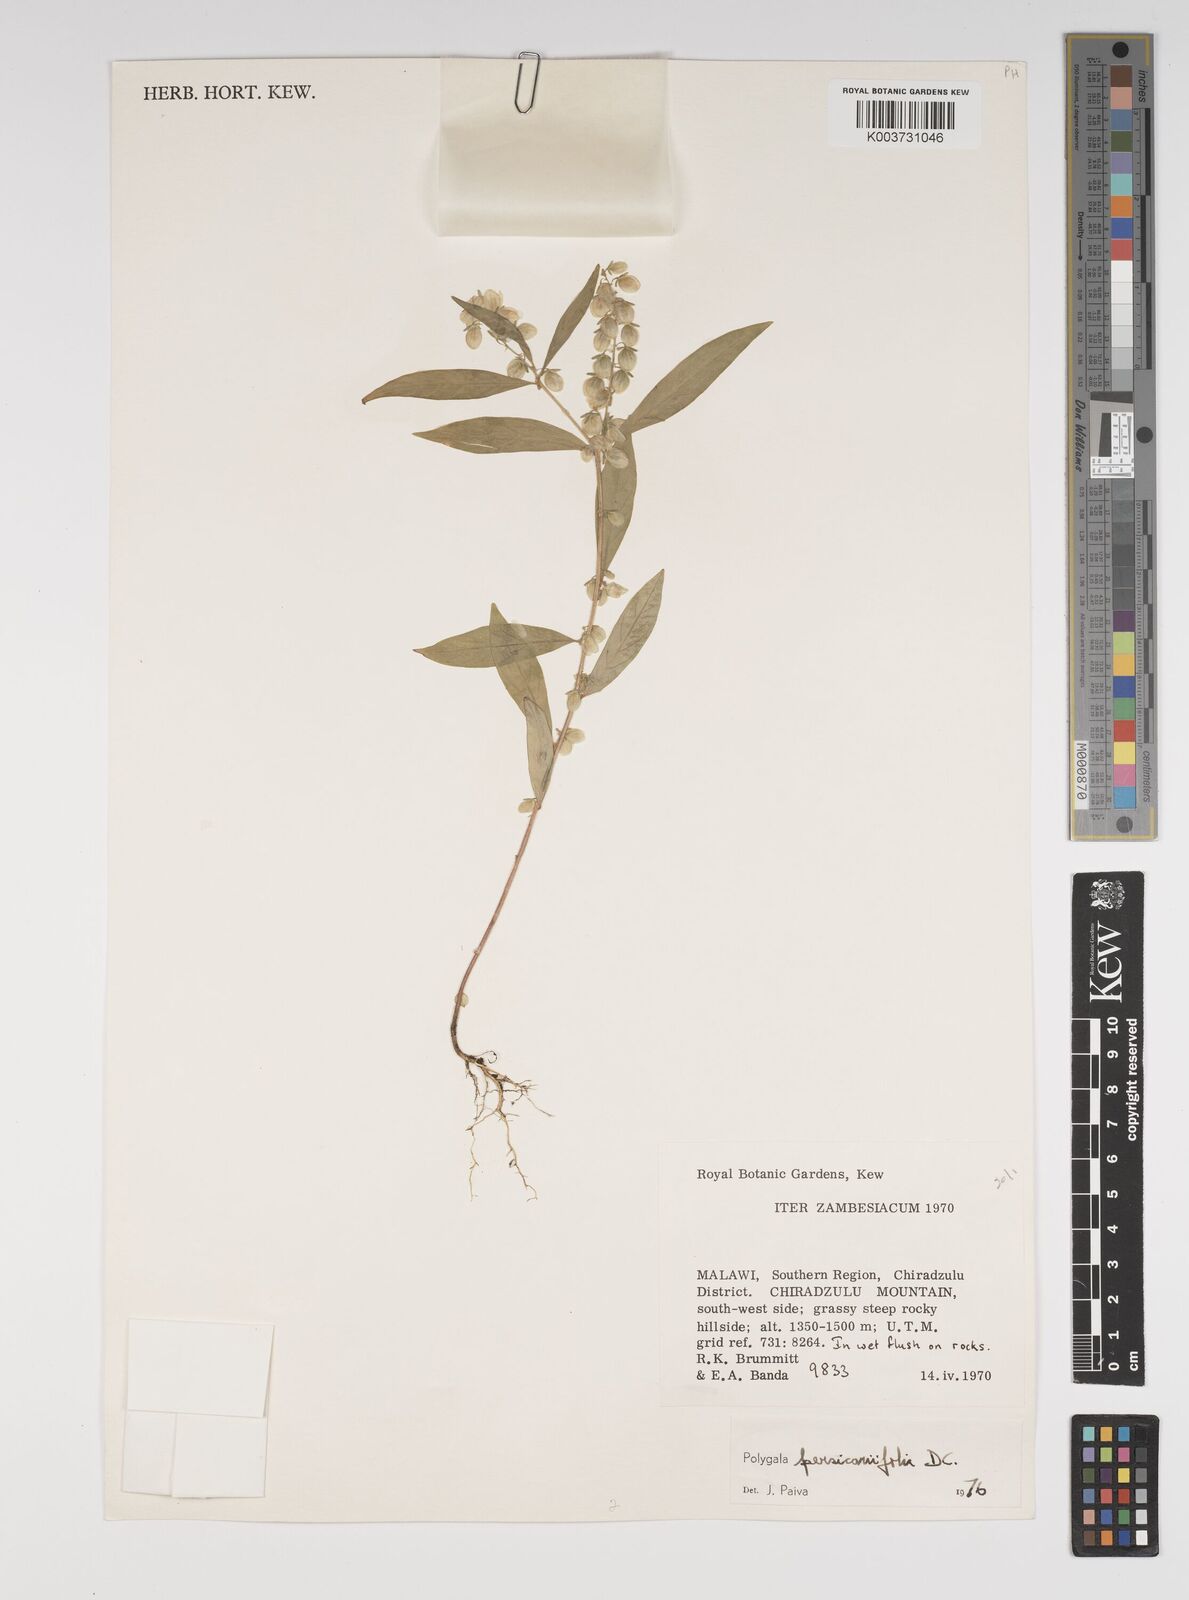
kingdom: Plantae
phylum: Tracheophyta
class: Magnoliopsida
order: Fabales
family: Polygalaceae
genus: Polygala
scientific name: Polygala persicariifolia
